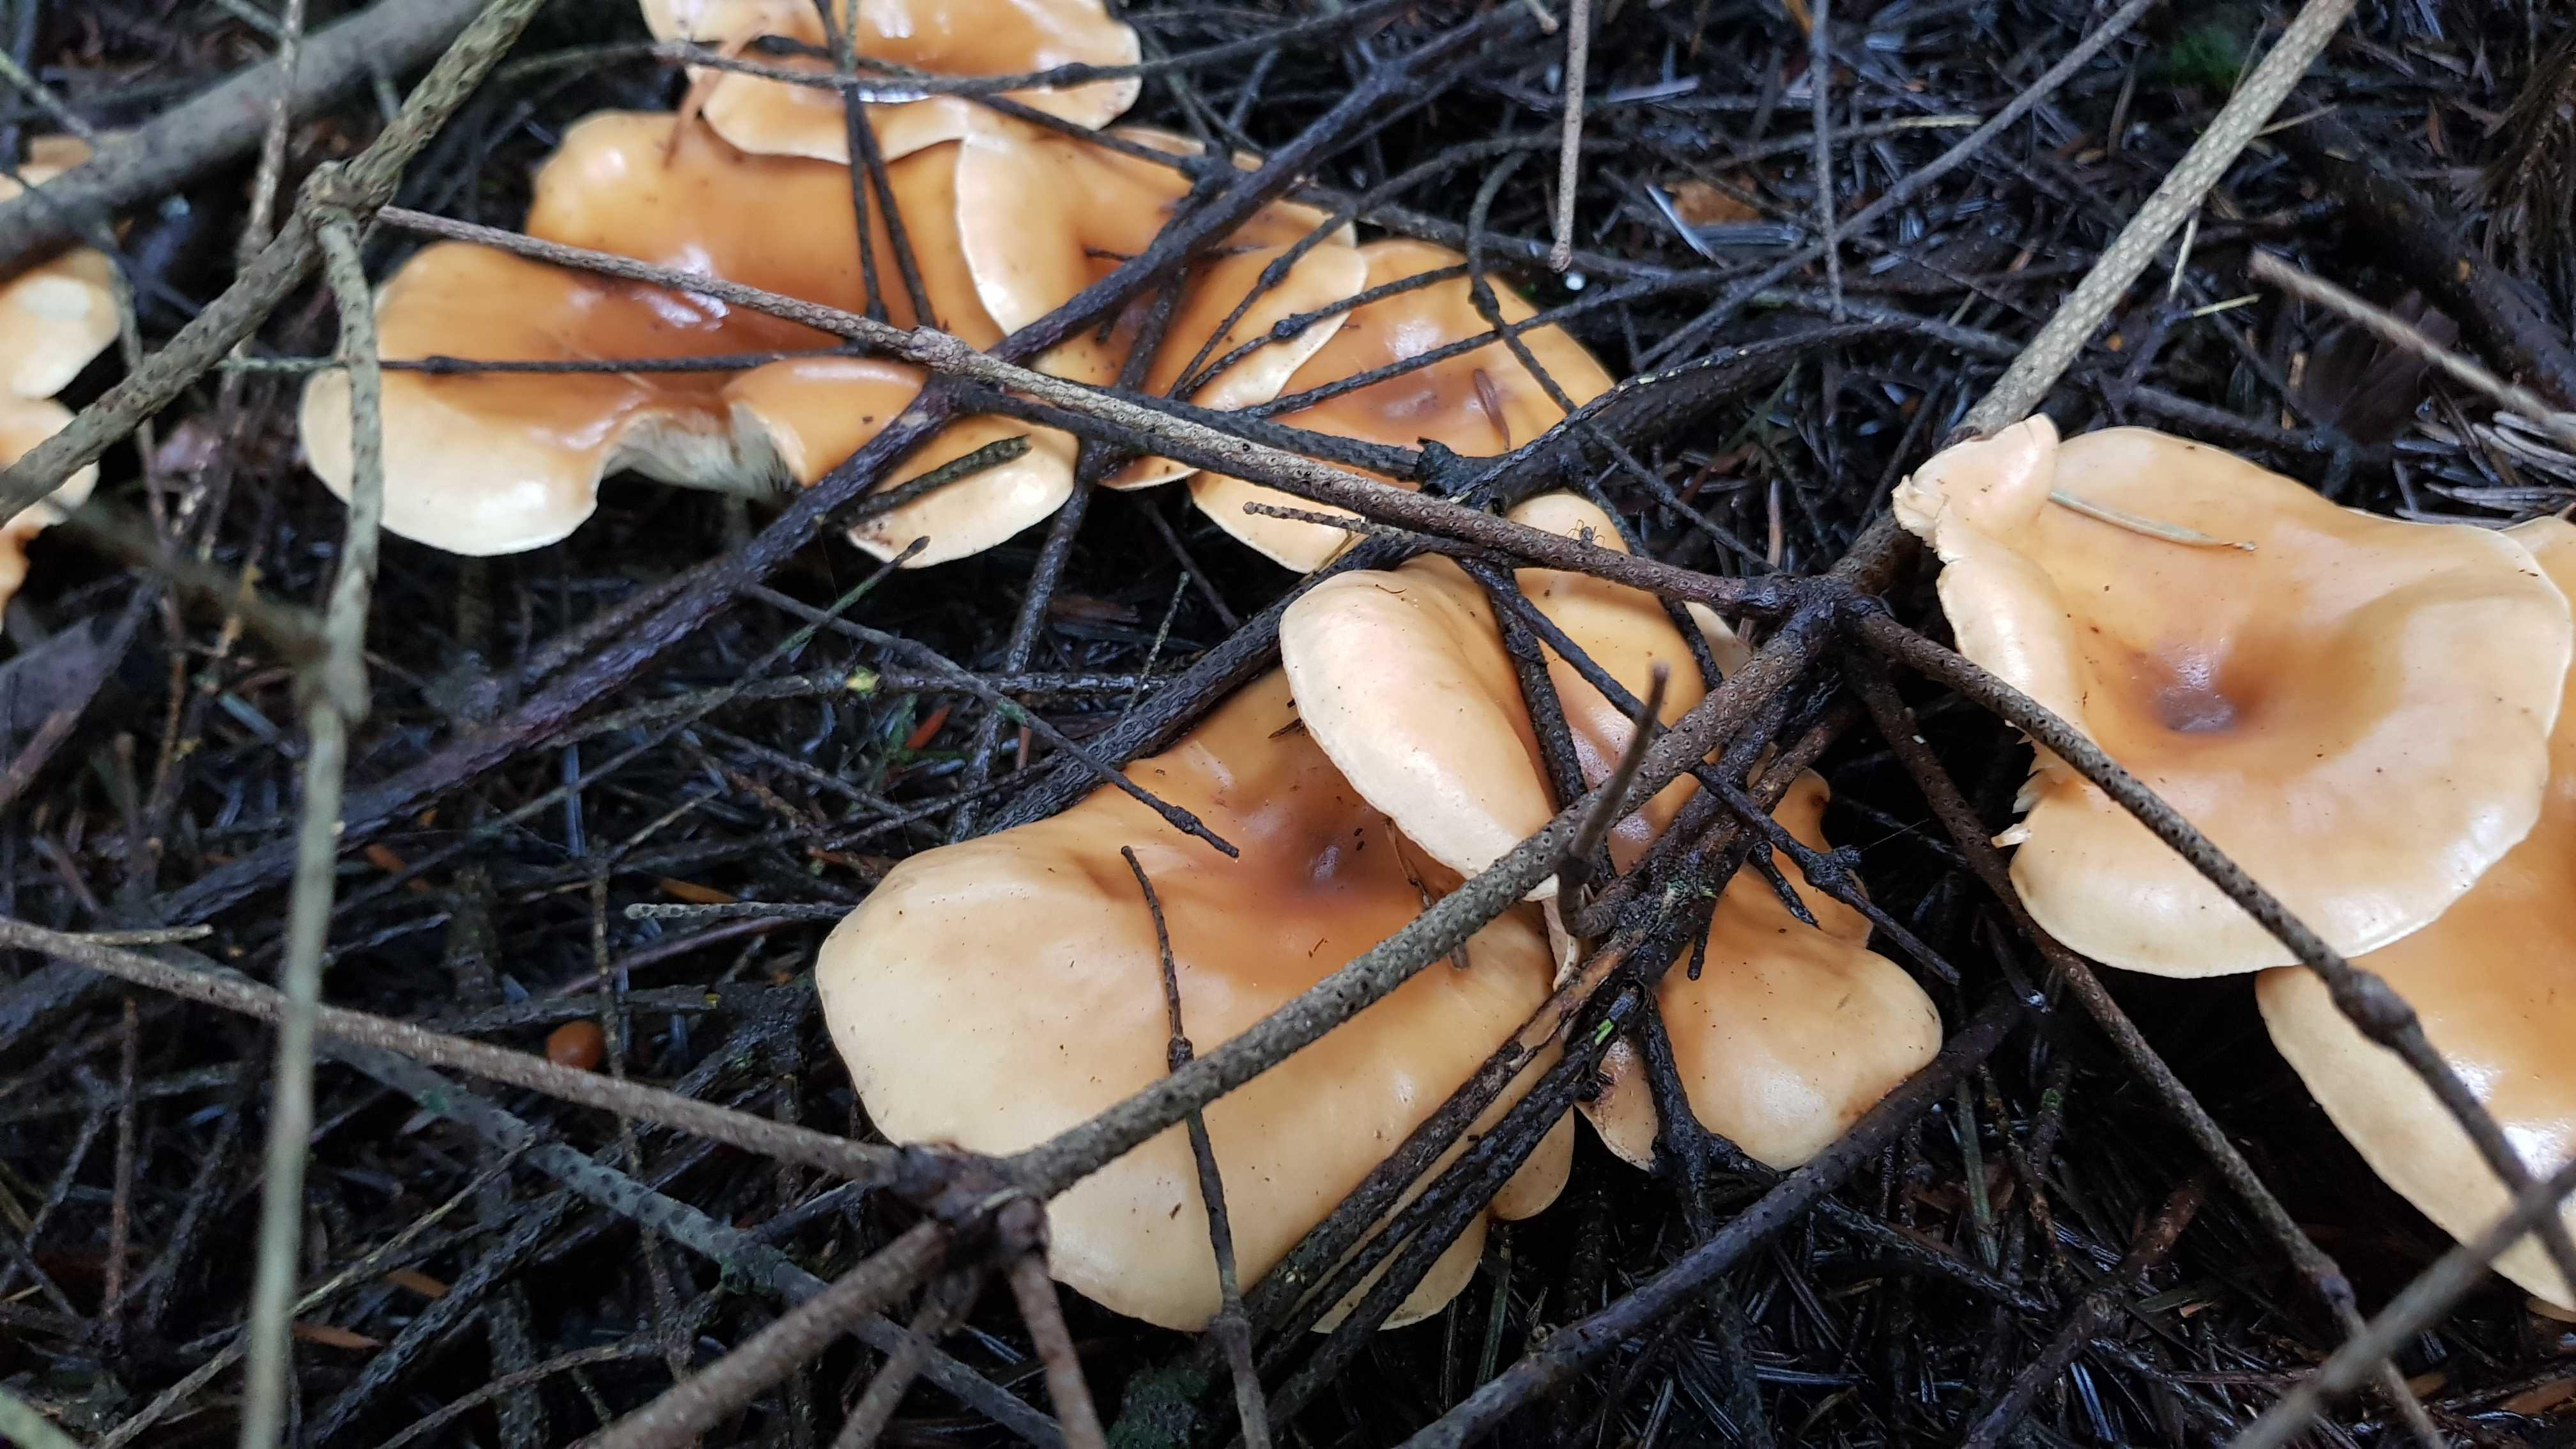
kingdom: Fungi
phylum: Basidiomycota
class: Agaricomycetes
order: Agaricales
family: Tricholomataceae
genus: Paralepista
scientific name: Paralepista flaccida
